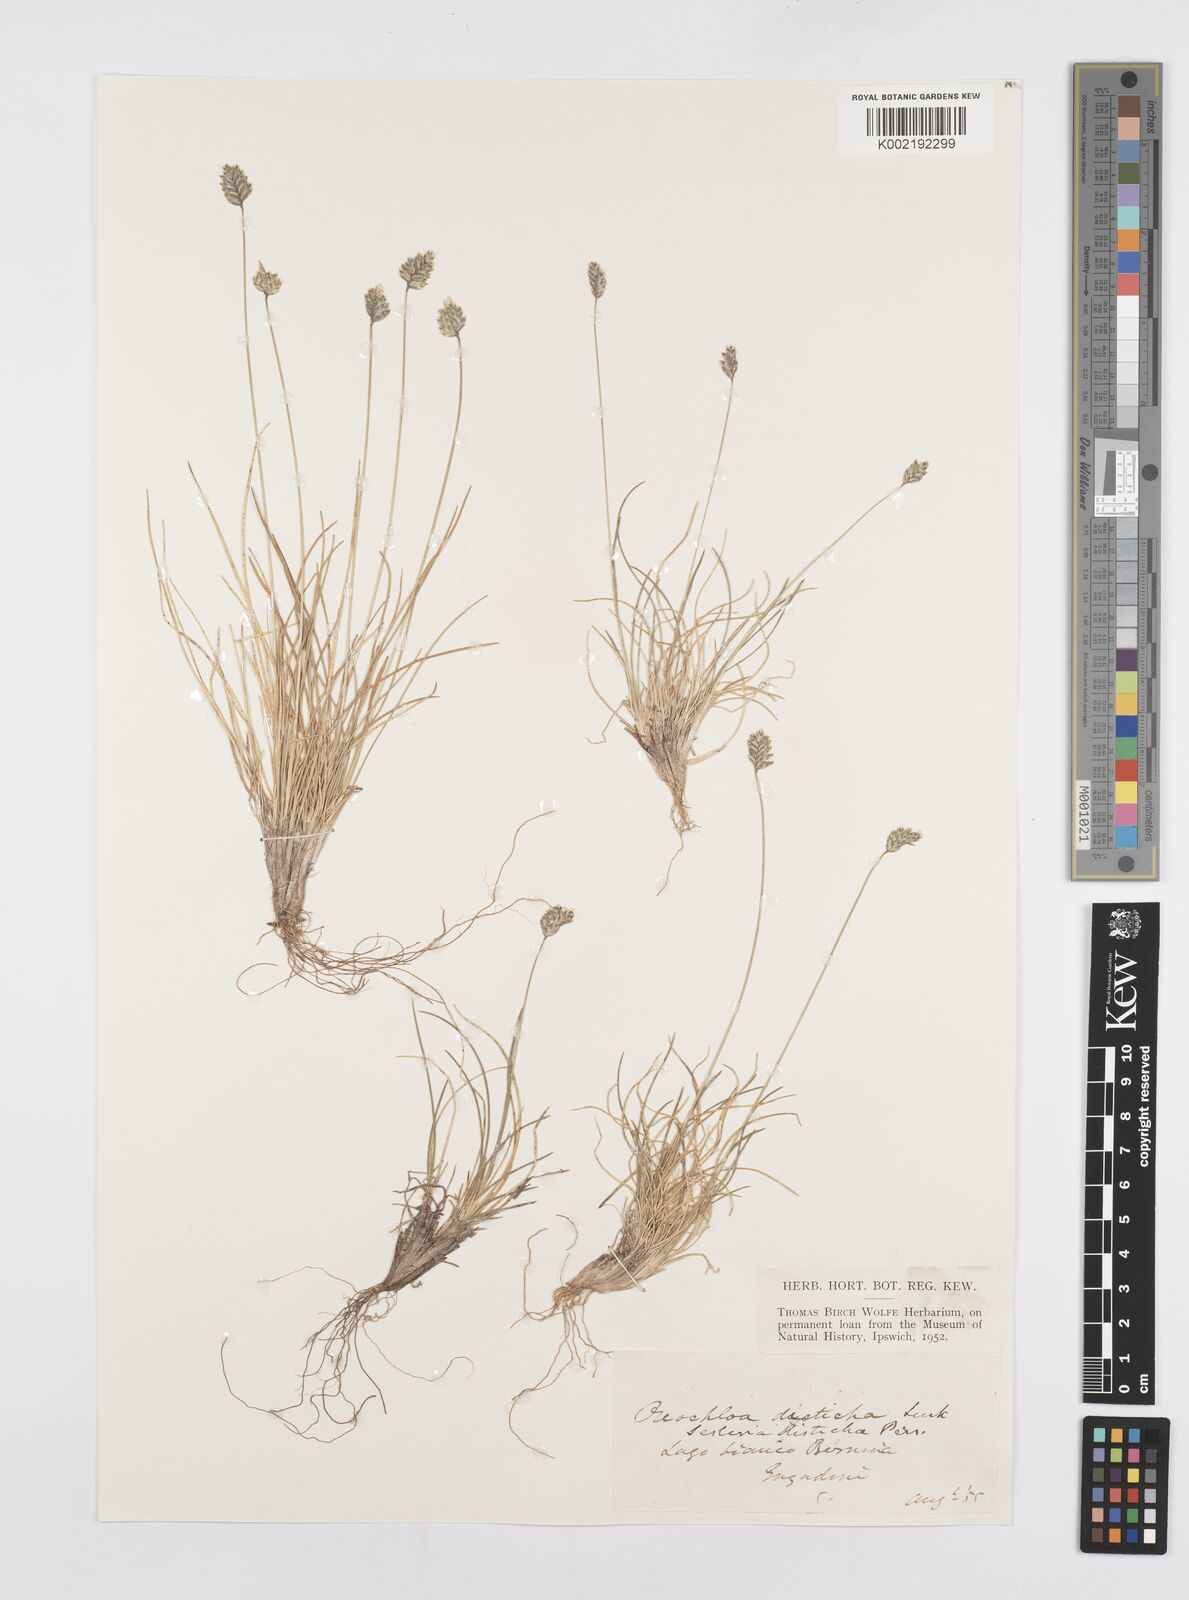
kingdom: Plantae
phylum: Tracheophyta
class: Liliopsida
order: Poales
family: Poaceae
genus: Oreochloa
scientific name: Oreochloa disticha
